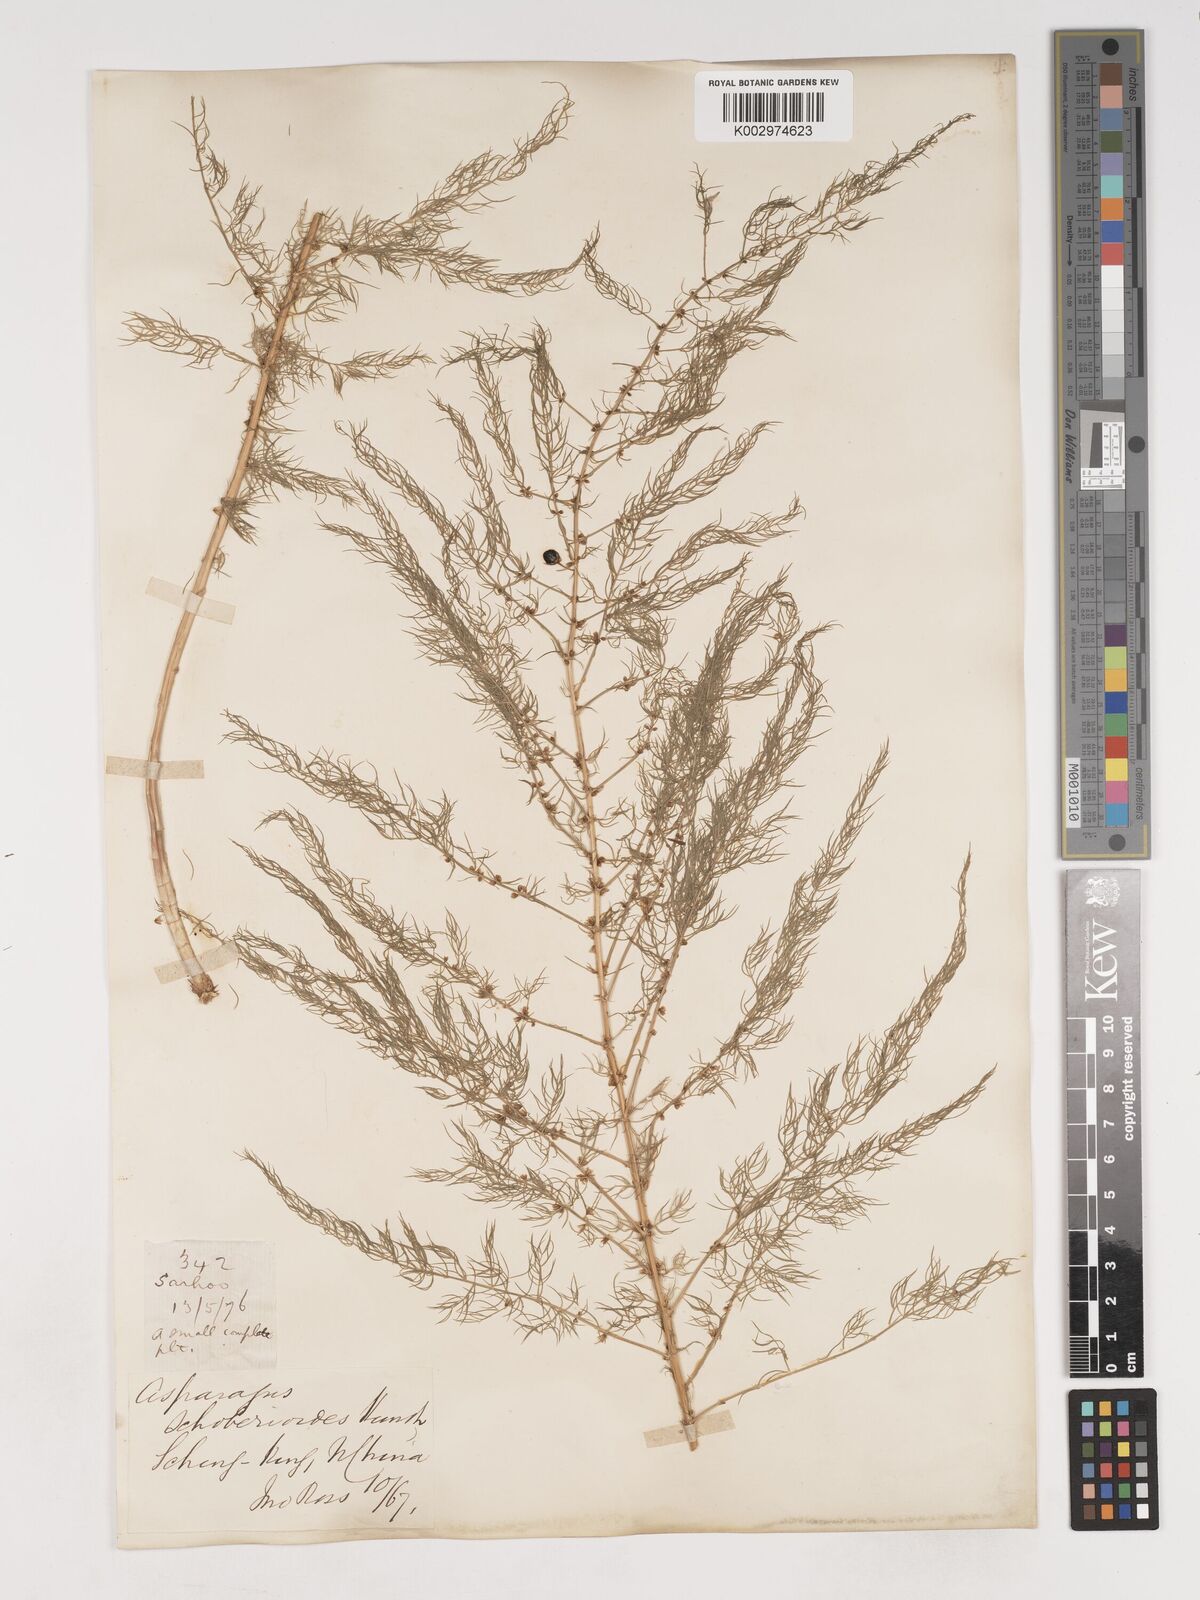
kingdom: Plantae
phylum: Tracheophyta
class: Liliopsida
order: Asparagales
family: Asparagaceae
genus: Asparagus
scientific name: Asparagus schoberioides
